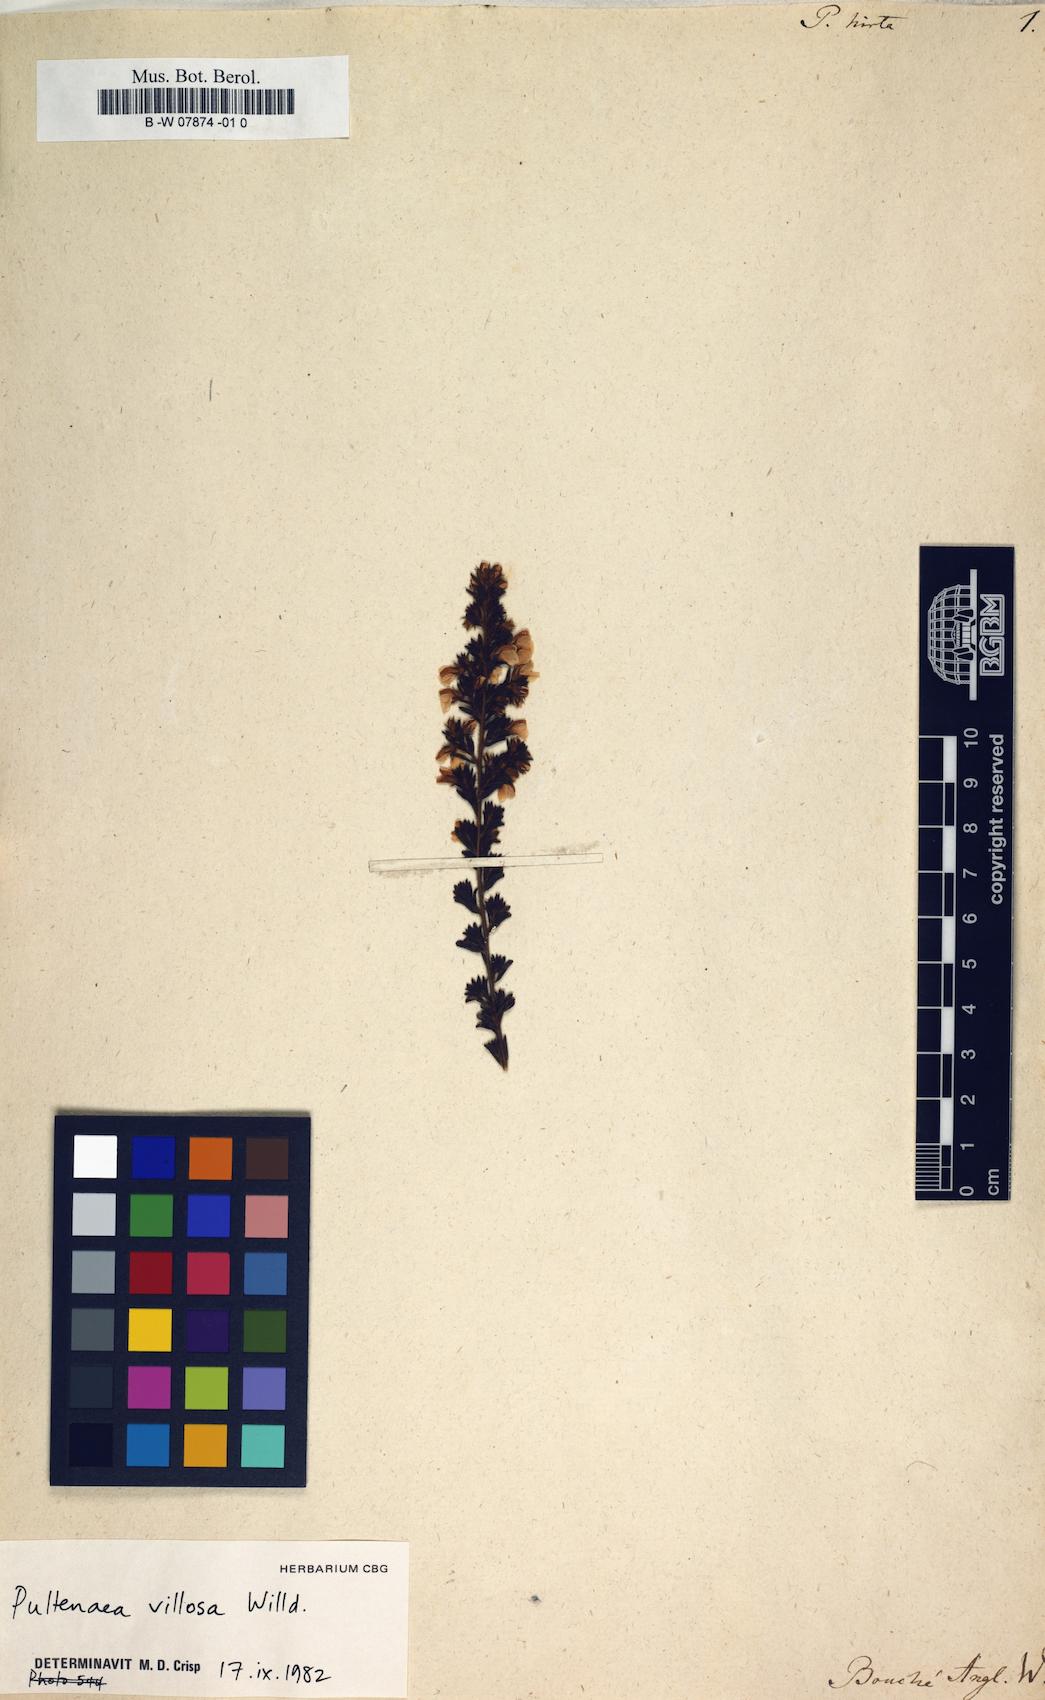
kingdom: Plantae
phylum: Tracheophyta
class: Magnoliopsida
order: Fabales
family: Fabaceae
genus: Pultenaea
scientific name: Pultenaea
